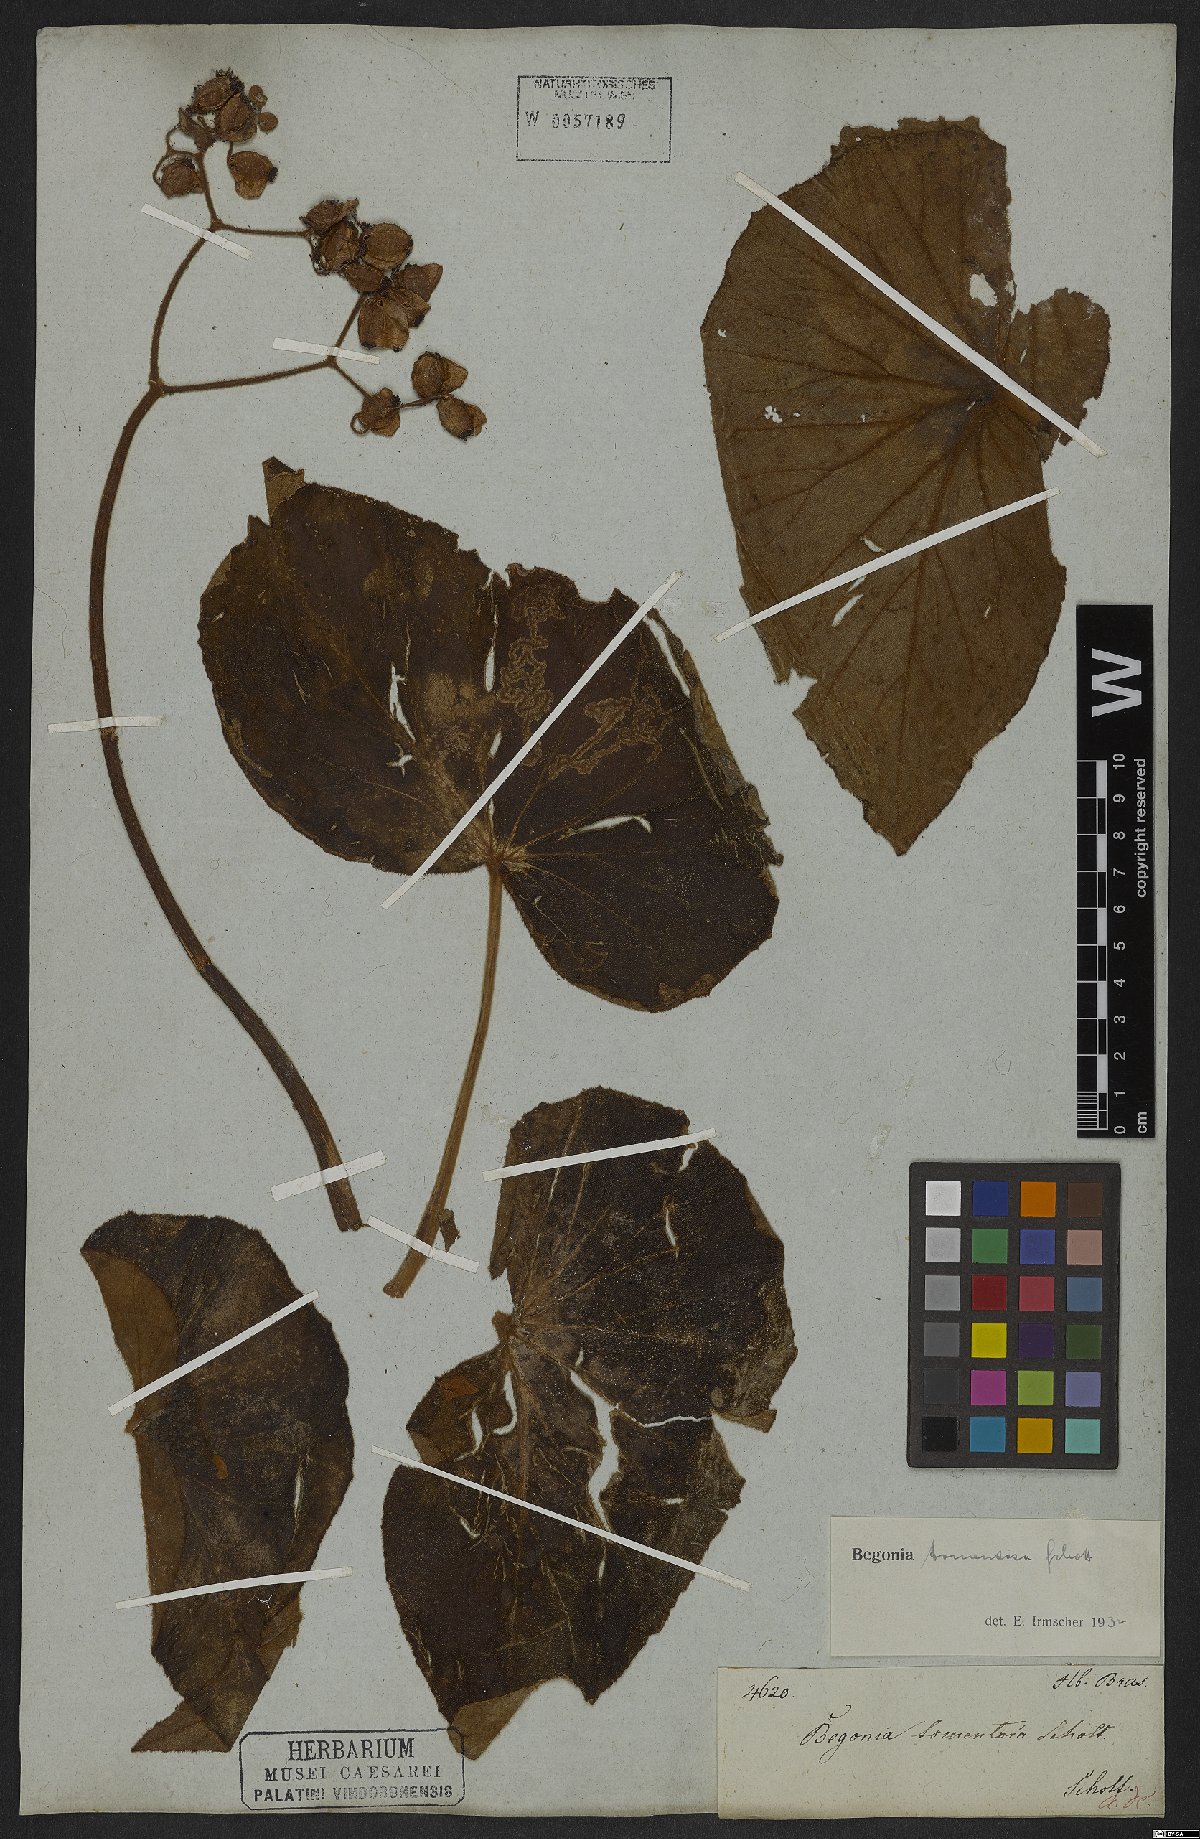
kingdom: Plantae
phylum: Tracheophyta
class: Magnoliopsida
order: Cucurbitales
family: Begoniaceae
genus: Begonia
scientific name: Begonia tomentosa
